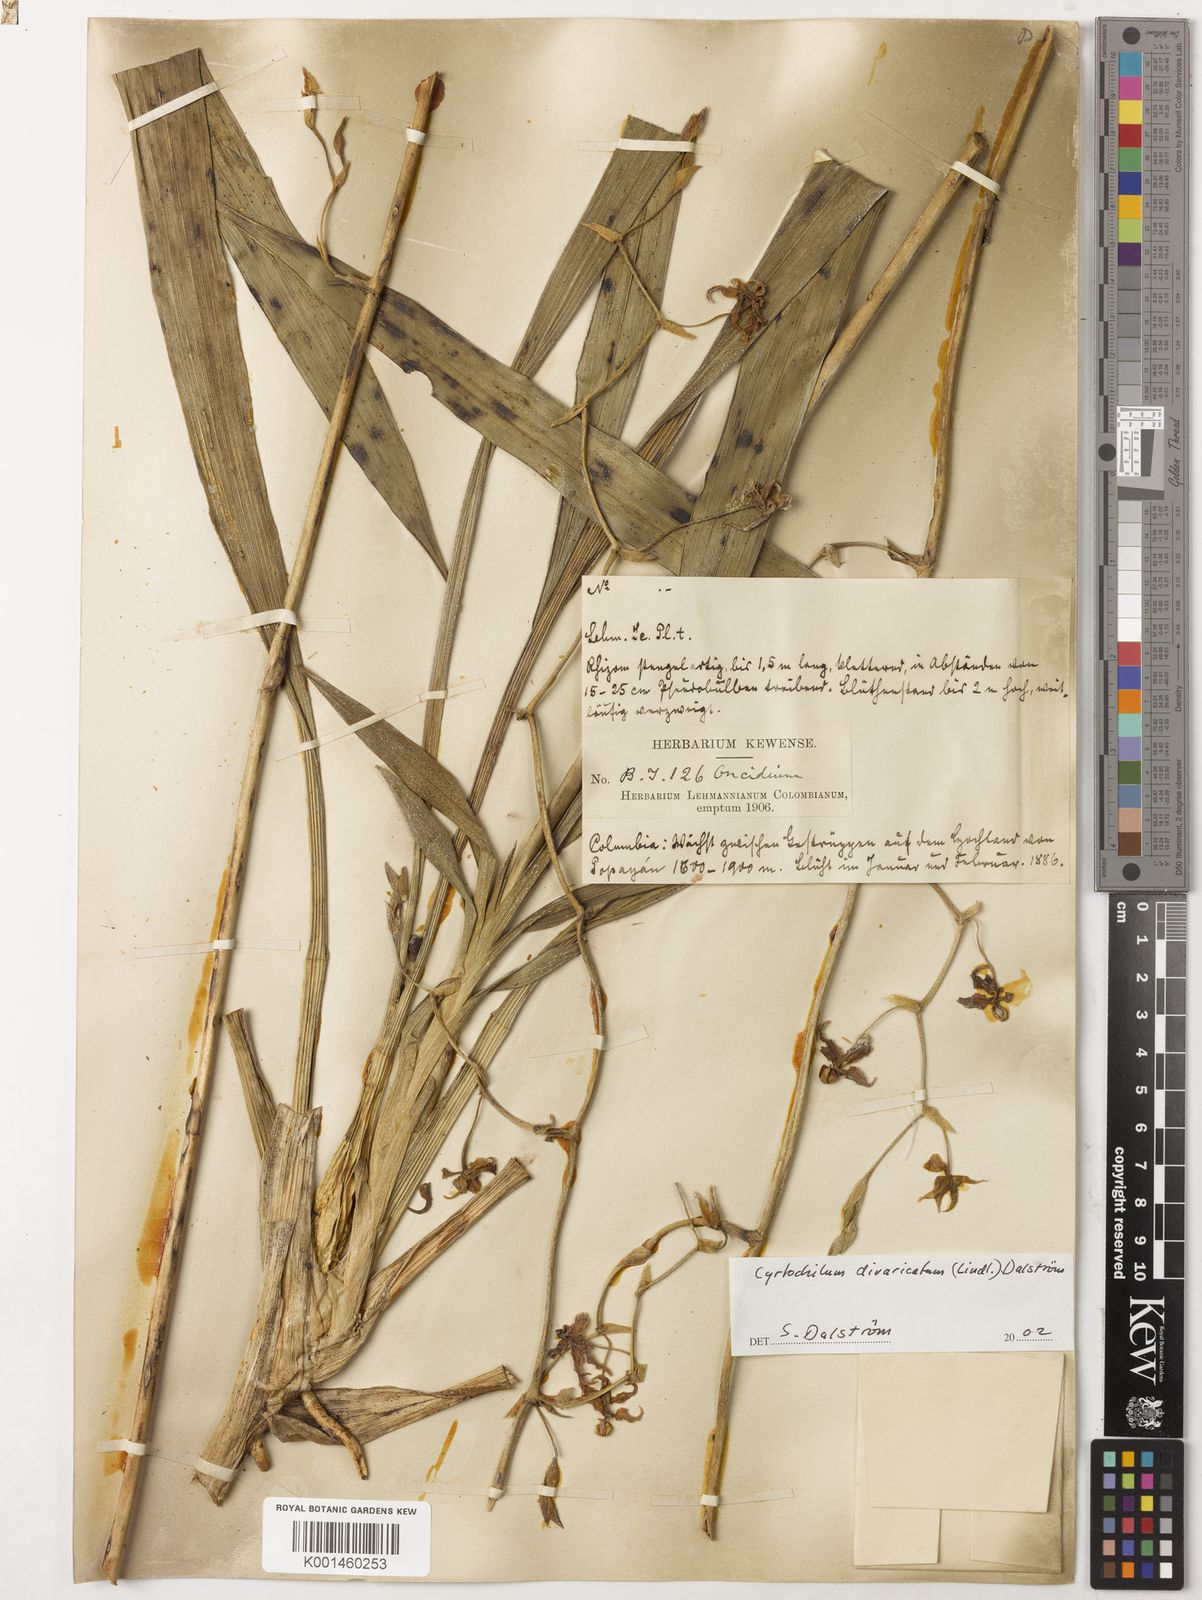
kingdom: Plantae
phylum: Tracheophyta
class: Liliopsida
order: Asparagales
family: Orchidaceae
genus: Cyrtochilum
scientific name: Cyrtochilum
